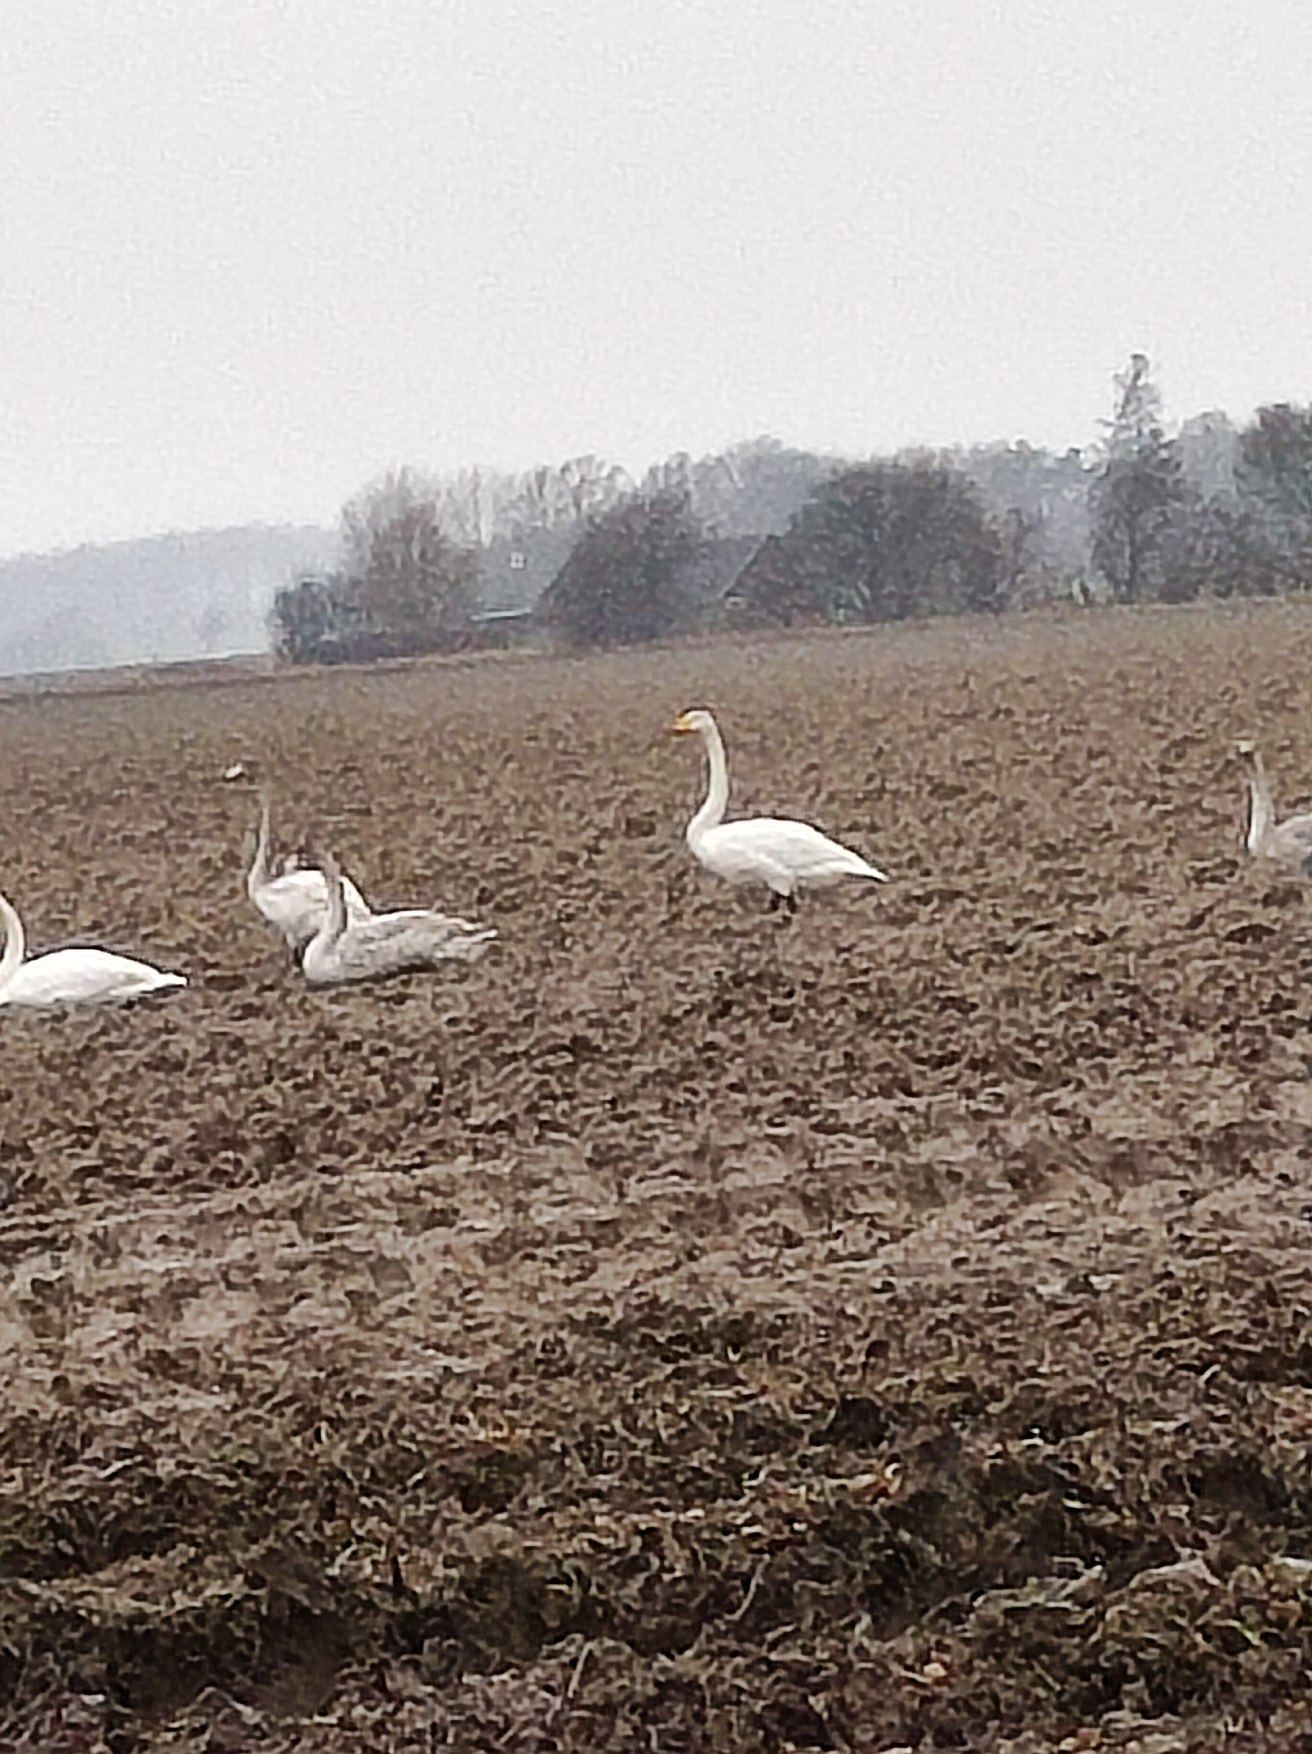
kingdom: Animalia
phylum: Chordata
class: Aves
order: Anseriformes
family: Anatidae
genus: Cygnus
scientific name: Cygnus cygnus
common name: Sangsvane
